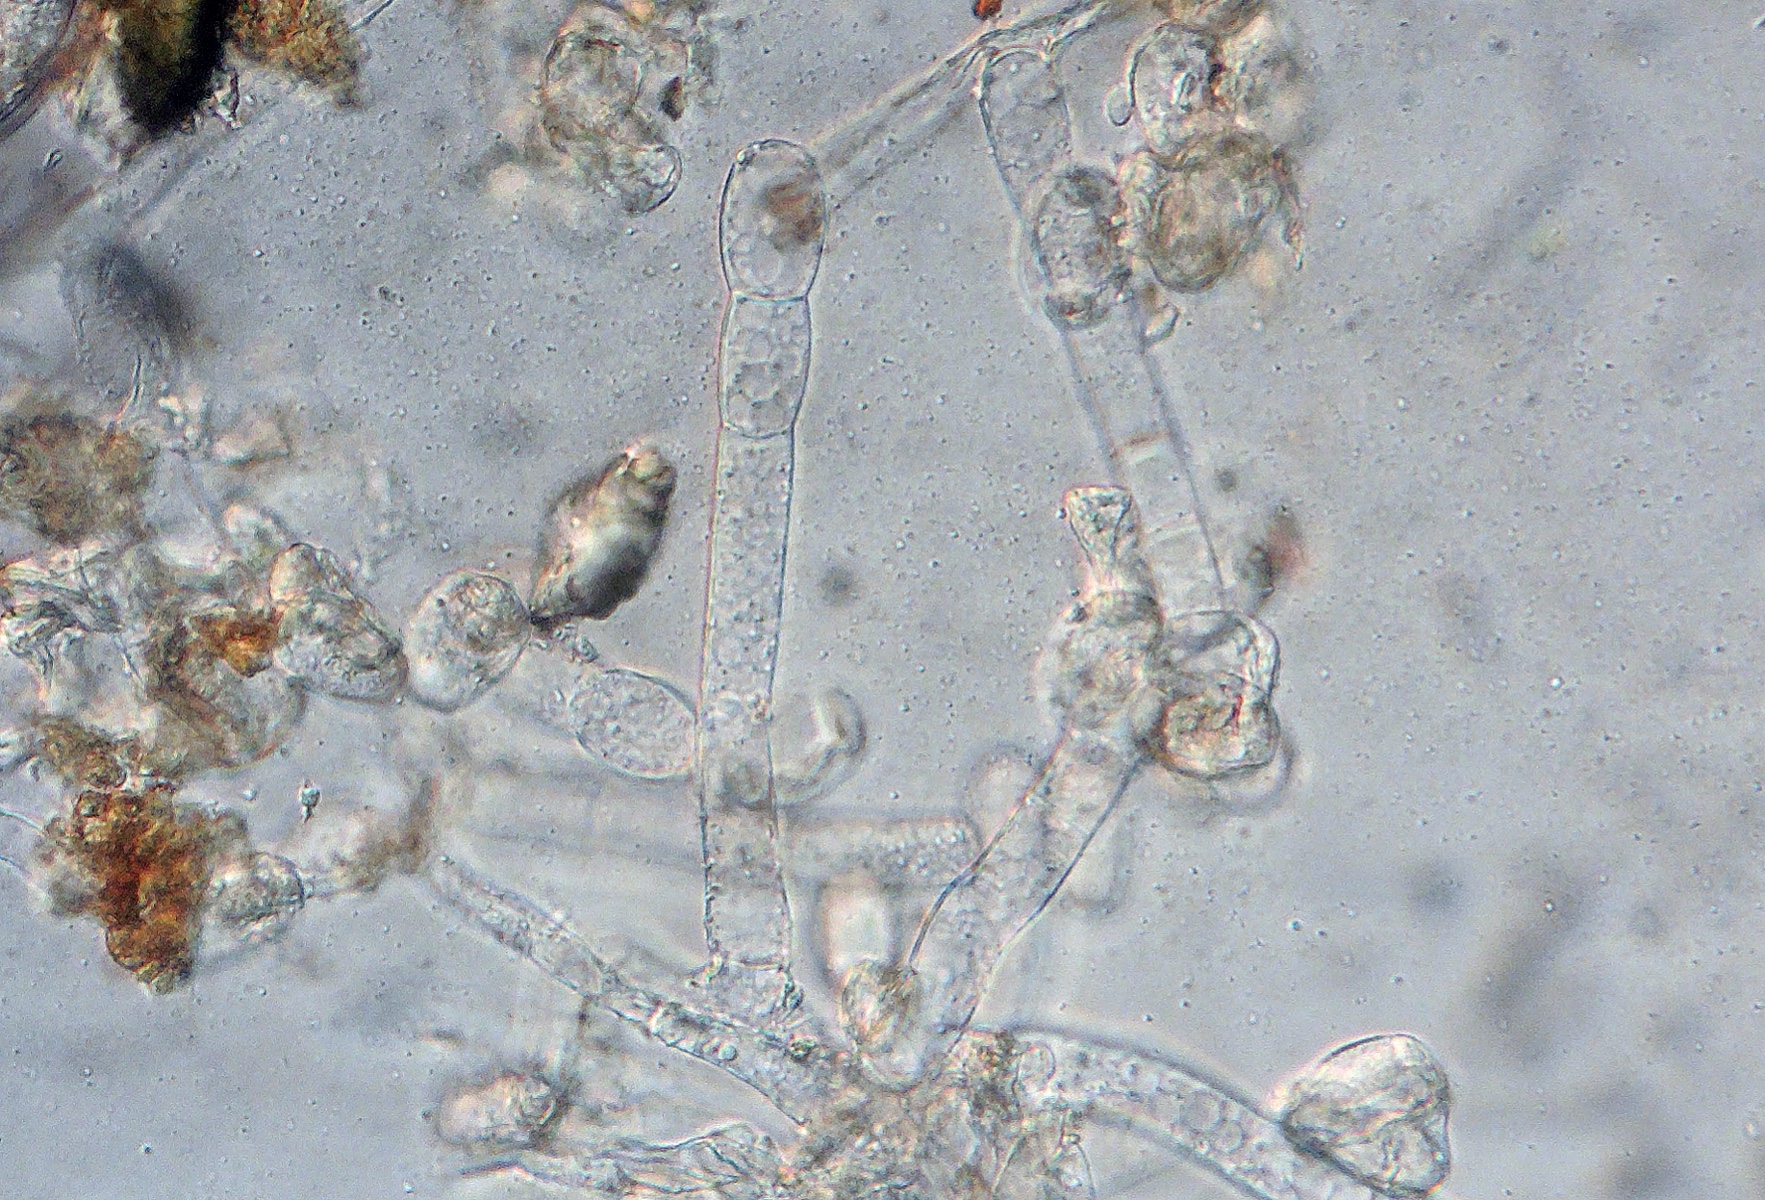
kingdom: Fungi
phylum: Ascomycota
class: Leotiomycetes
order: Helotiales
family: Erysiphaceae
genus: Podosphaera
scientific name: Podosphaera erigerontis-canadensis
